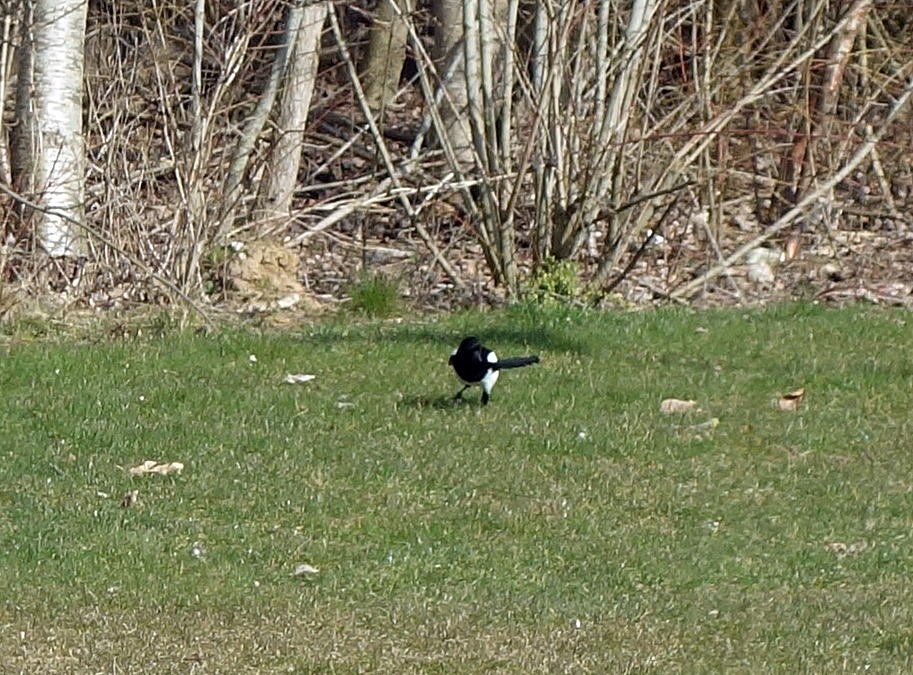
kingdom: Animalia
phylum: Chordata
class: Aves
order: Passeriformes
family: Corvidae
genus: Pica
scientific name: Pica pica
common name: Husskade
